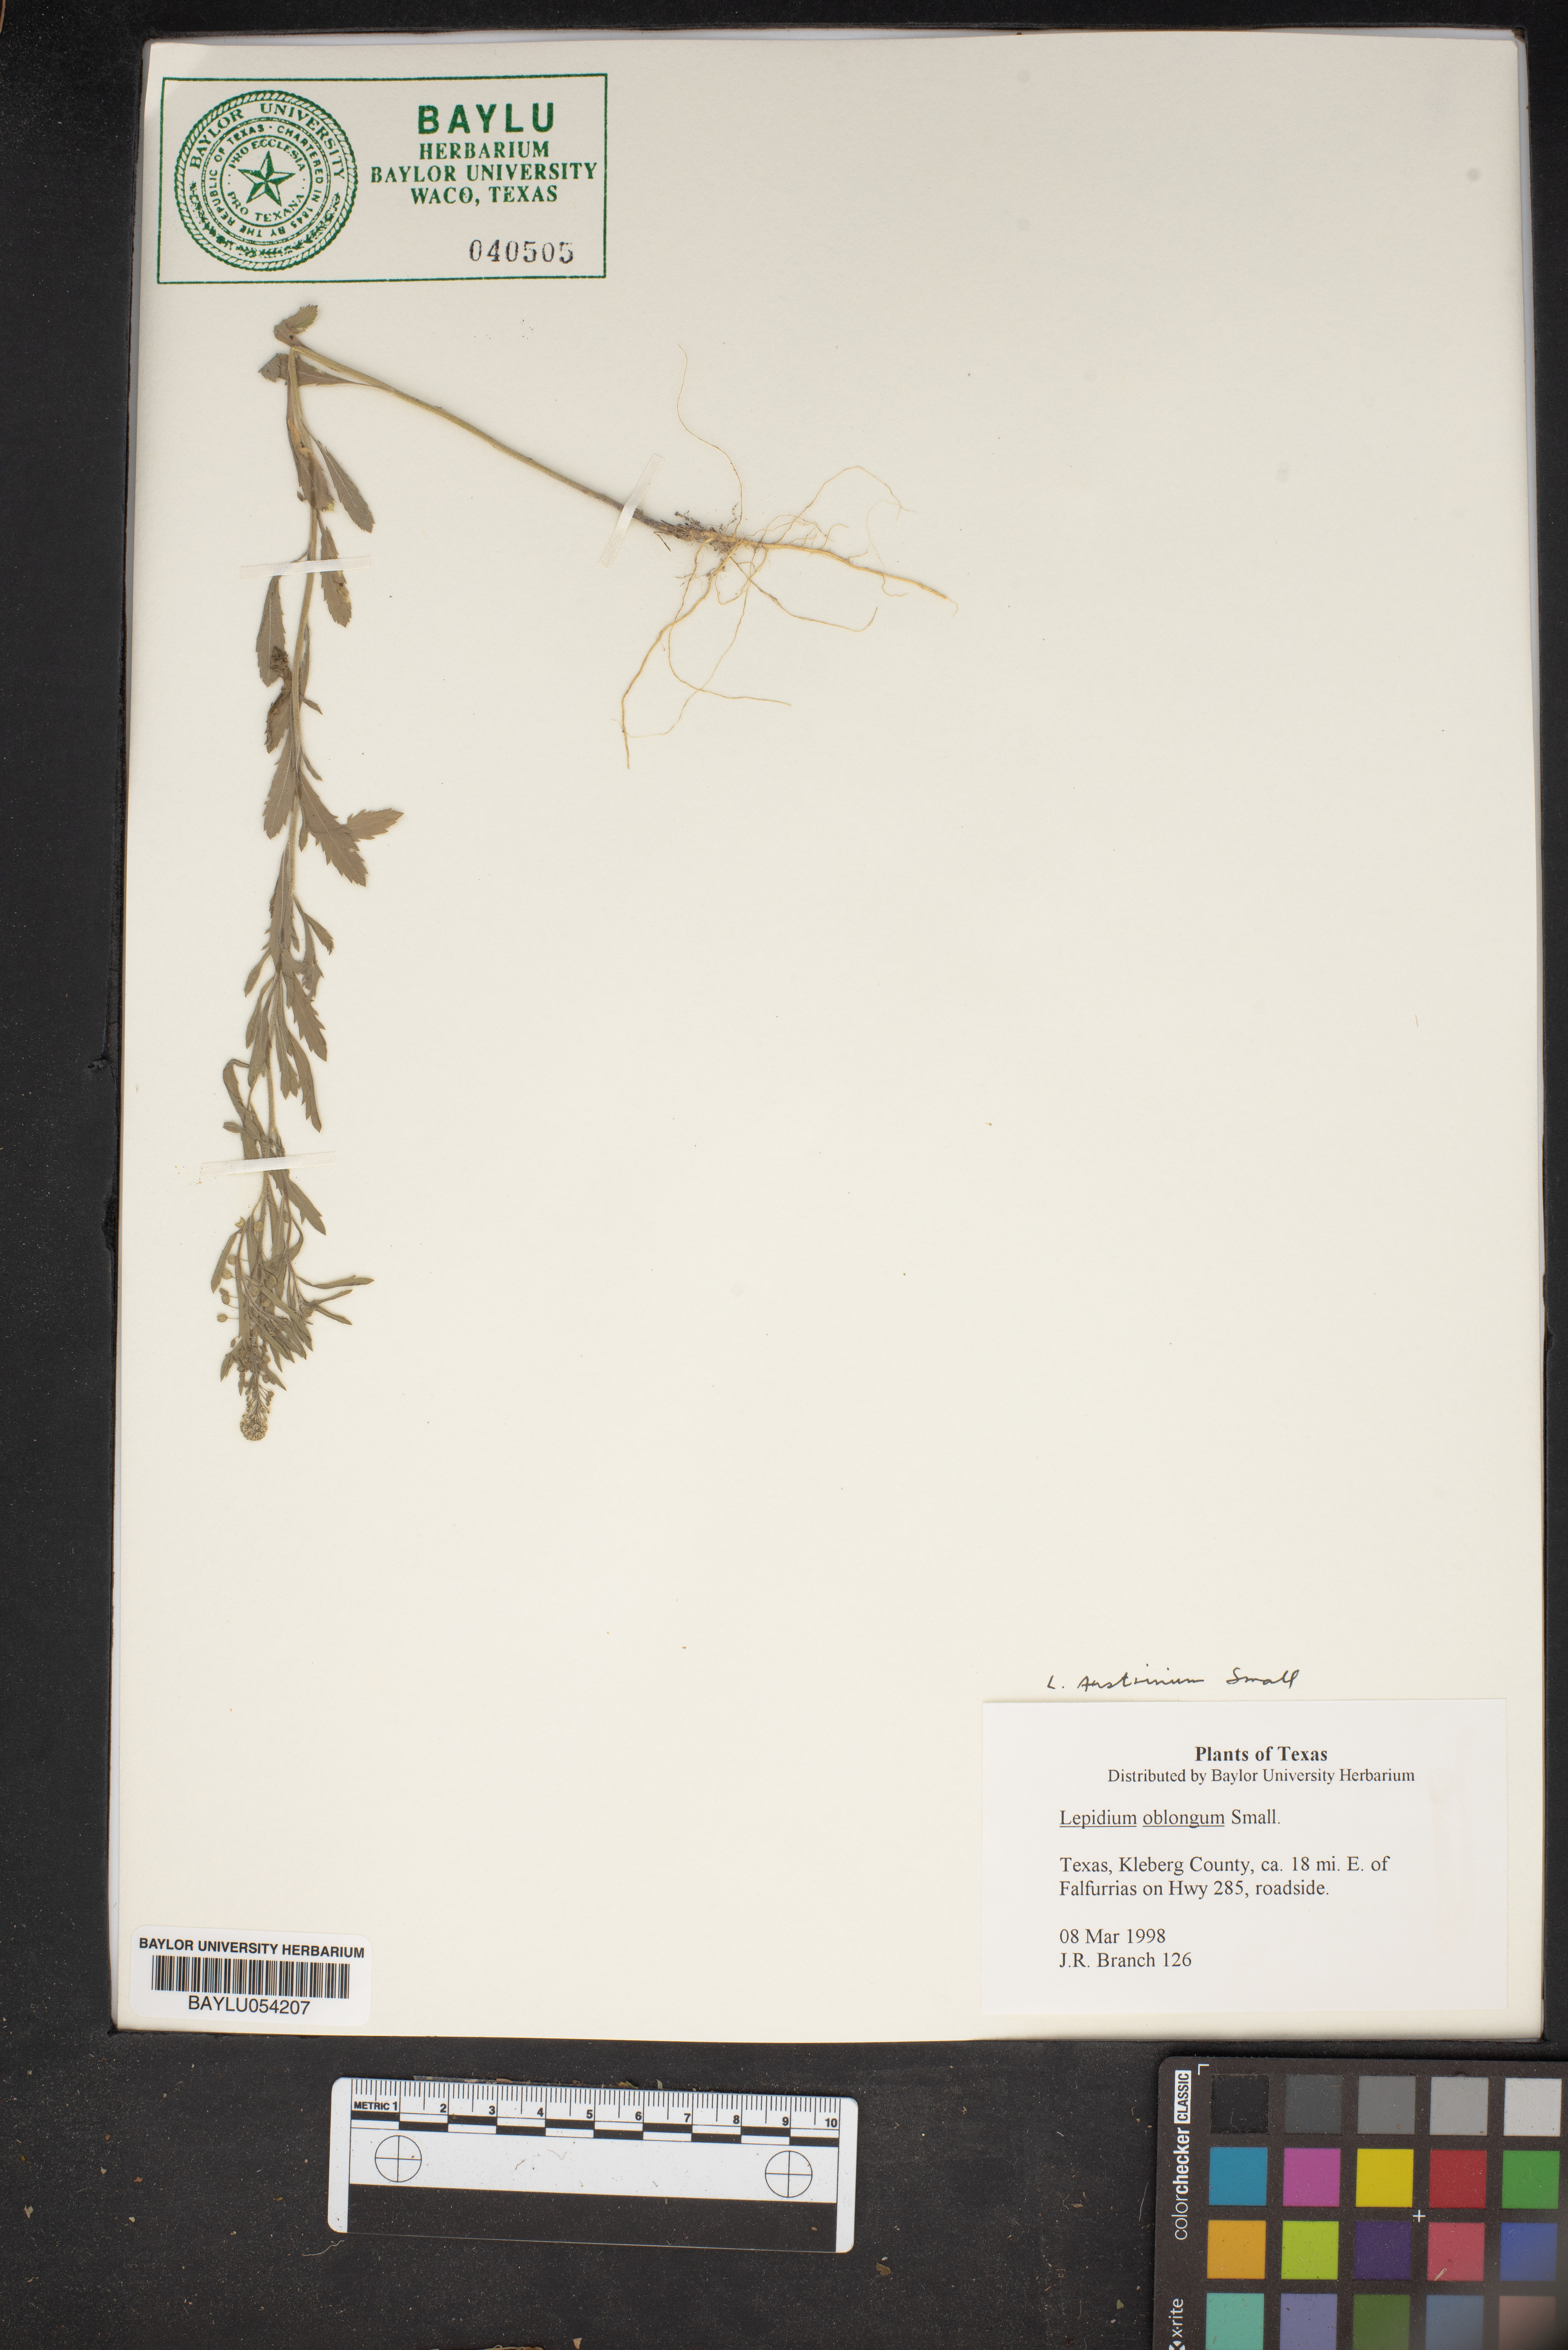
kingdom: Plantae
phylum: Tracheophyta
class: Magnoliopsida
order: Brassicales
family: Brassicaceae
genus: Lepidium
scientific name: Lepidium oblongum
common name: Veiny pepperweed
